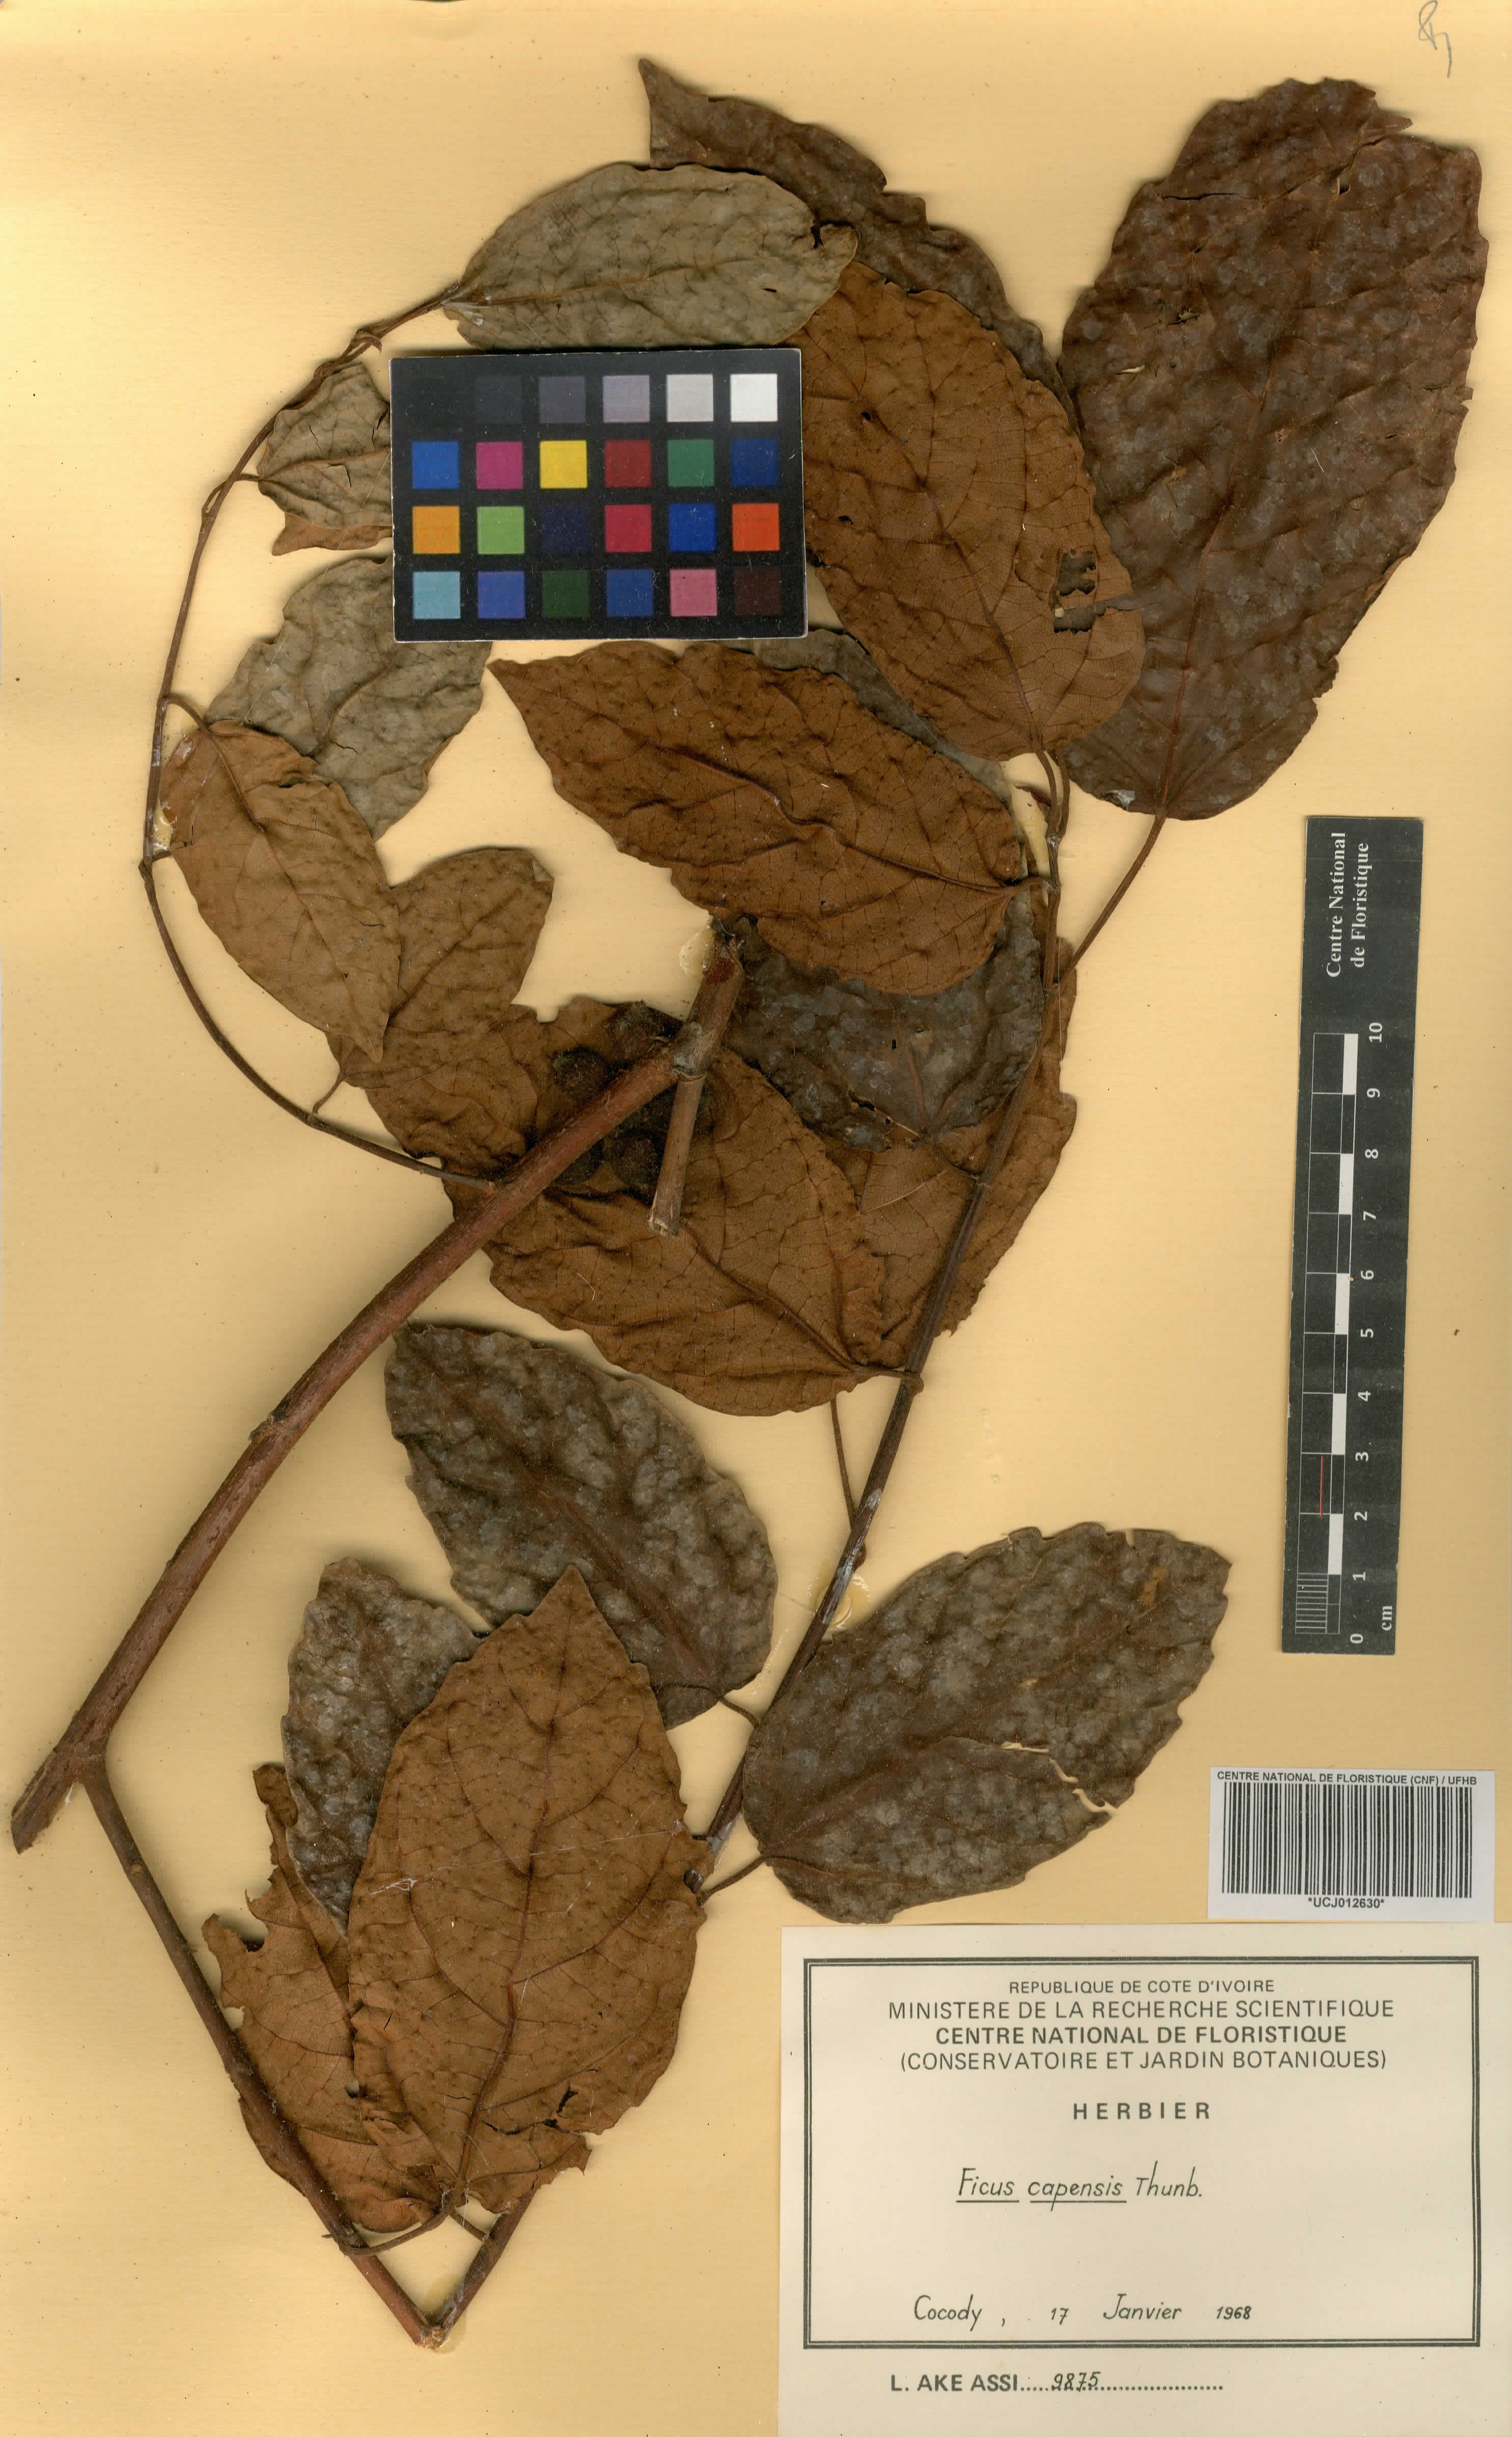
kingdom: Plantae
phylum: Tracheophyta
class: Magnoliopsida
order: Rosales
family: Moraceae
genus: Ficus
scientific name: Ficus sur
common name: Cape fig
